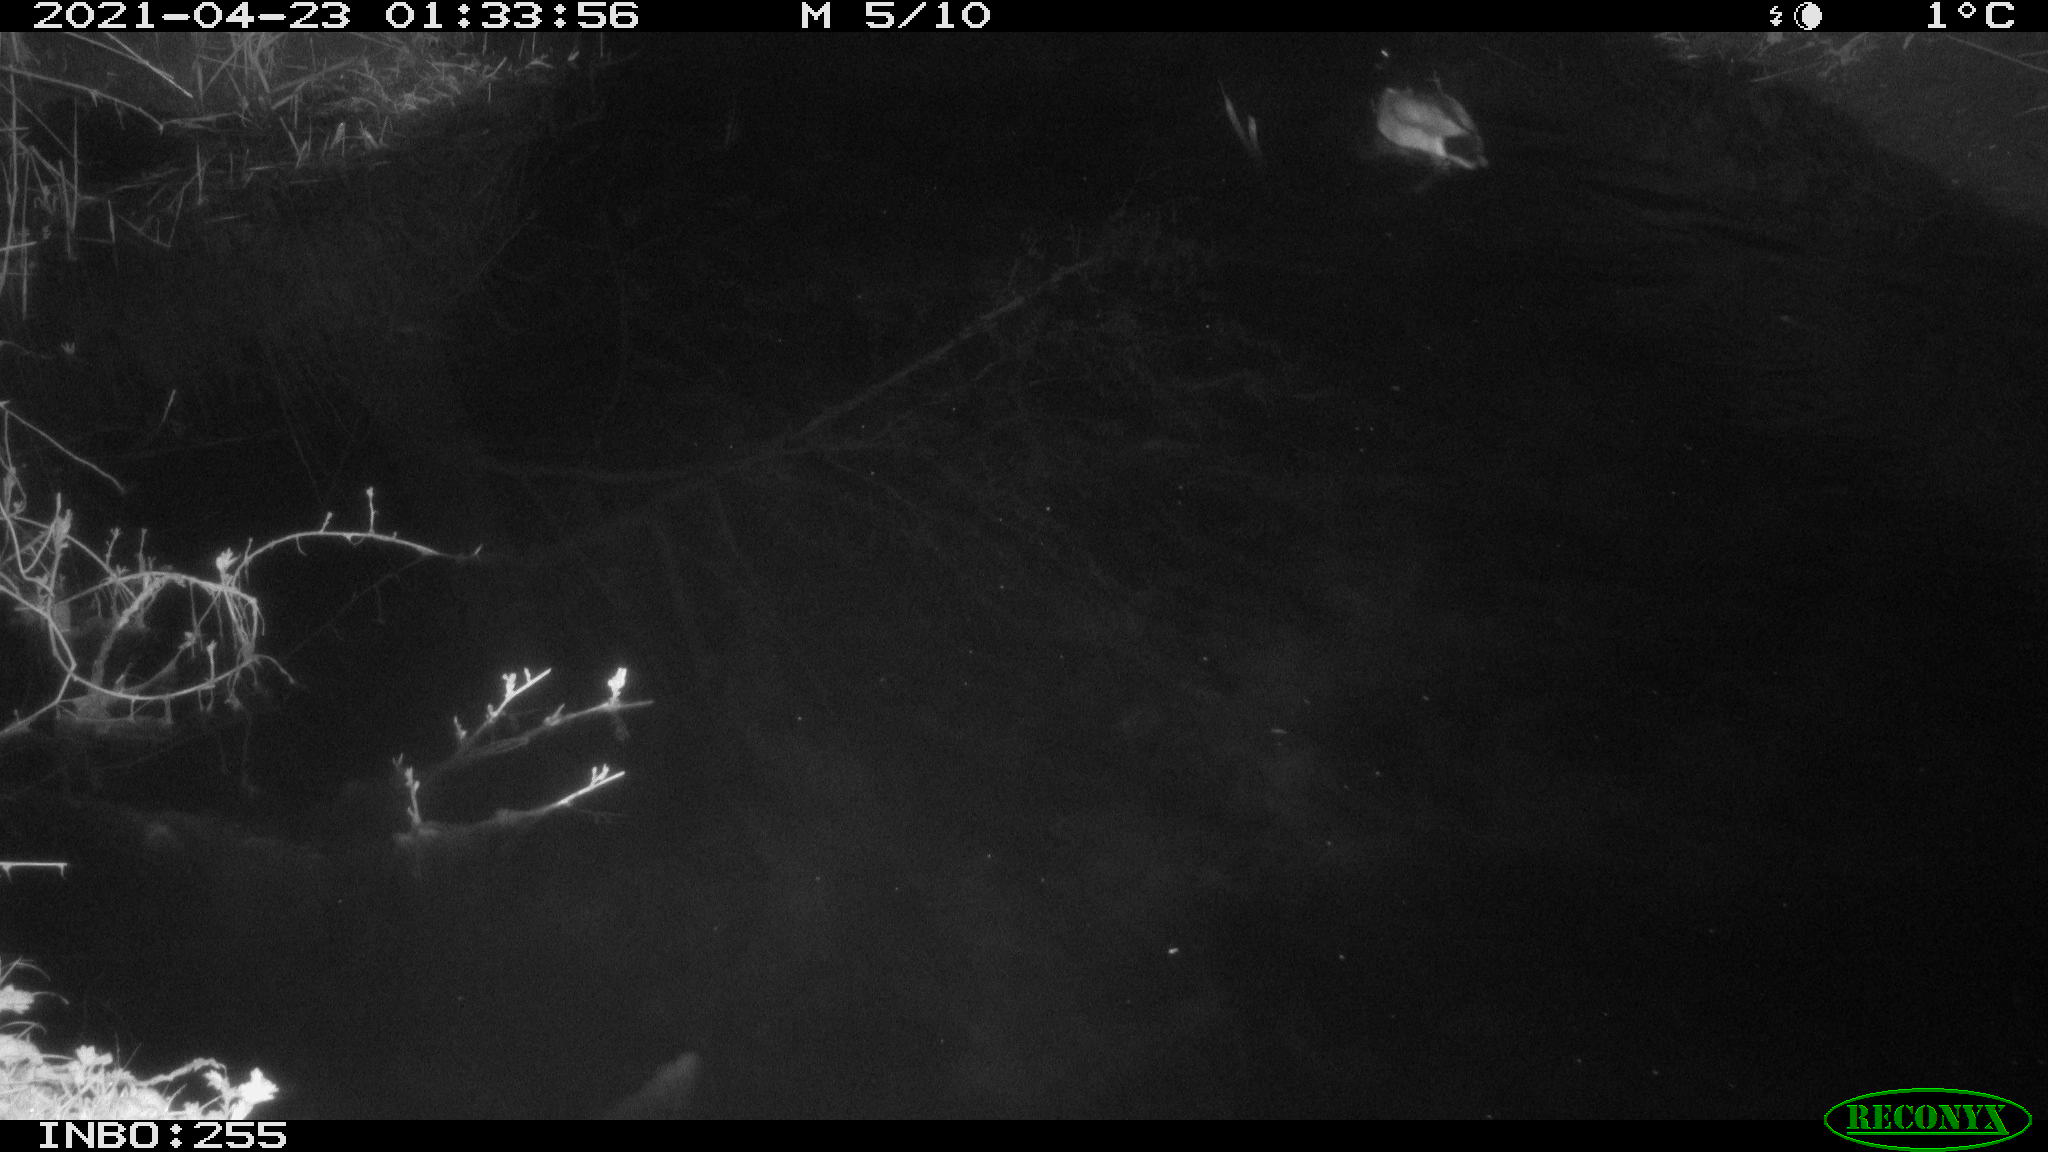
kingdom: Animalia
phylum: Chordata
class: Aves
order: Anseriformes
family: Anatidae
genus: Anas
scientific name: Anas platyrhynchos
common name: Mallard
